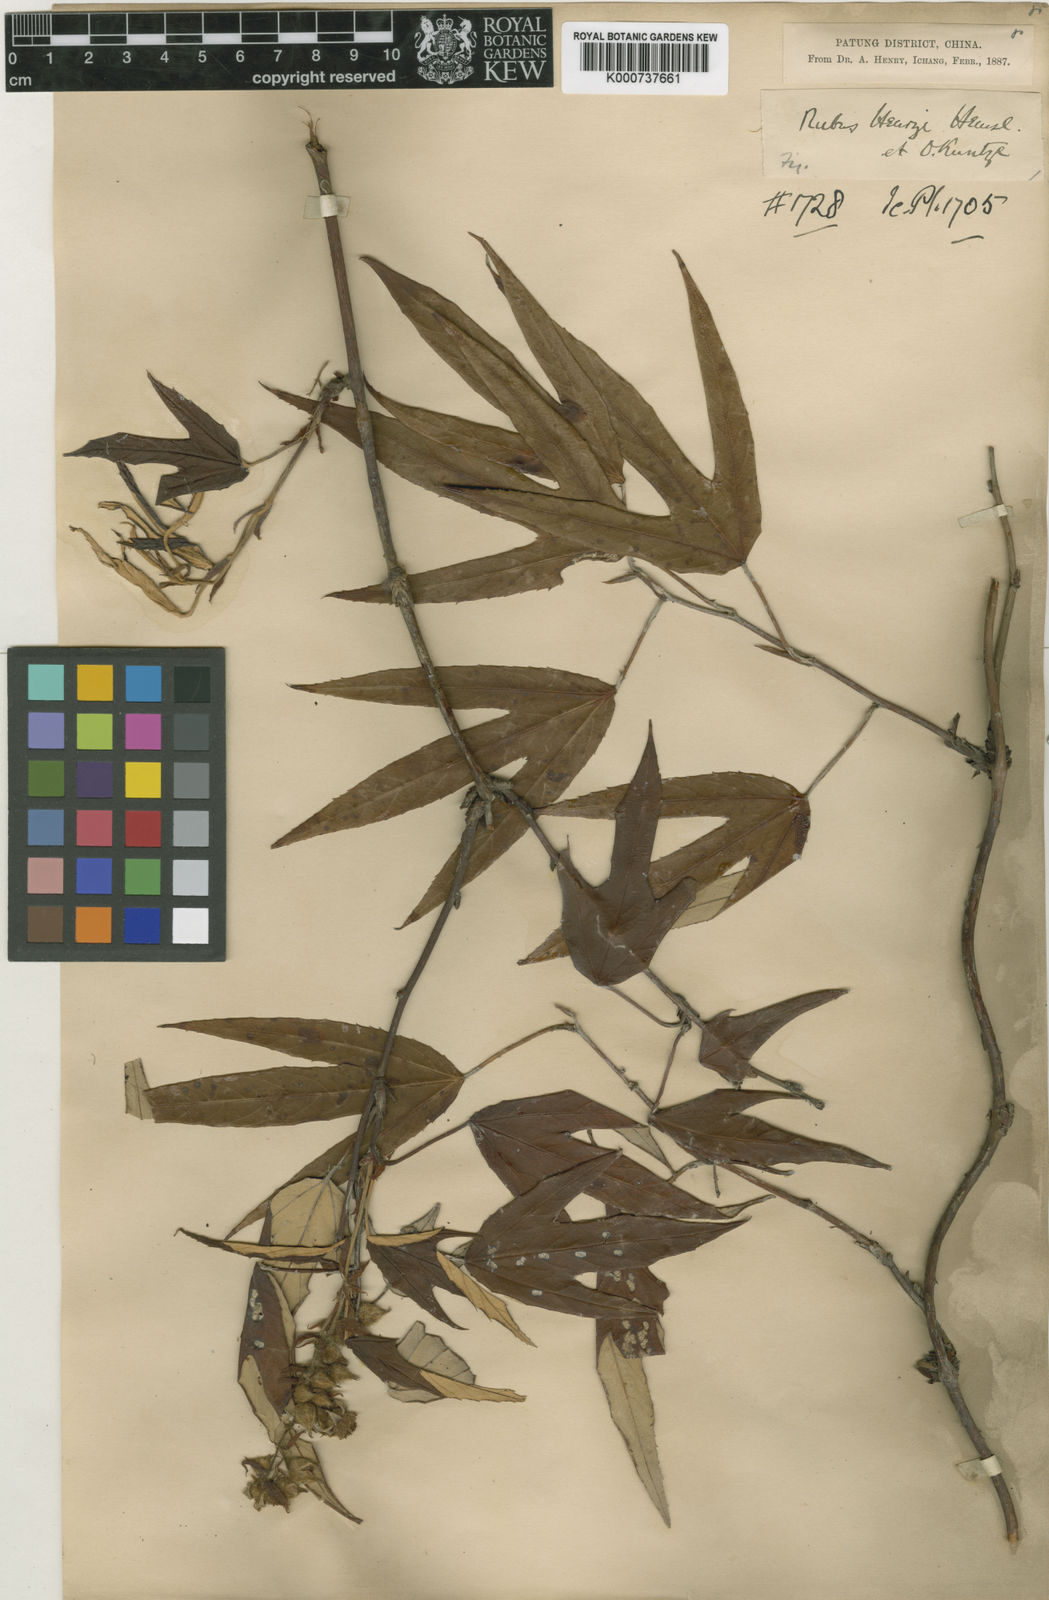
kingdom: Plantae
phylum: Tracheophyta
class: Magnoliopsida
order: Rosales
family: Rosaceae
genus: Rubus
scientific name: Rubus henryi
